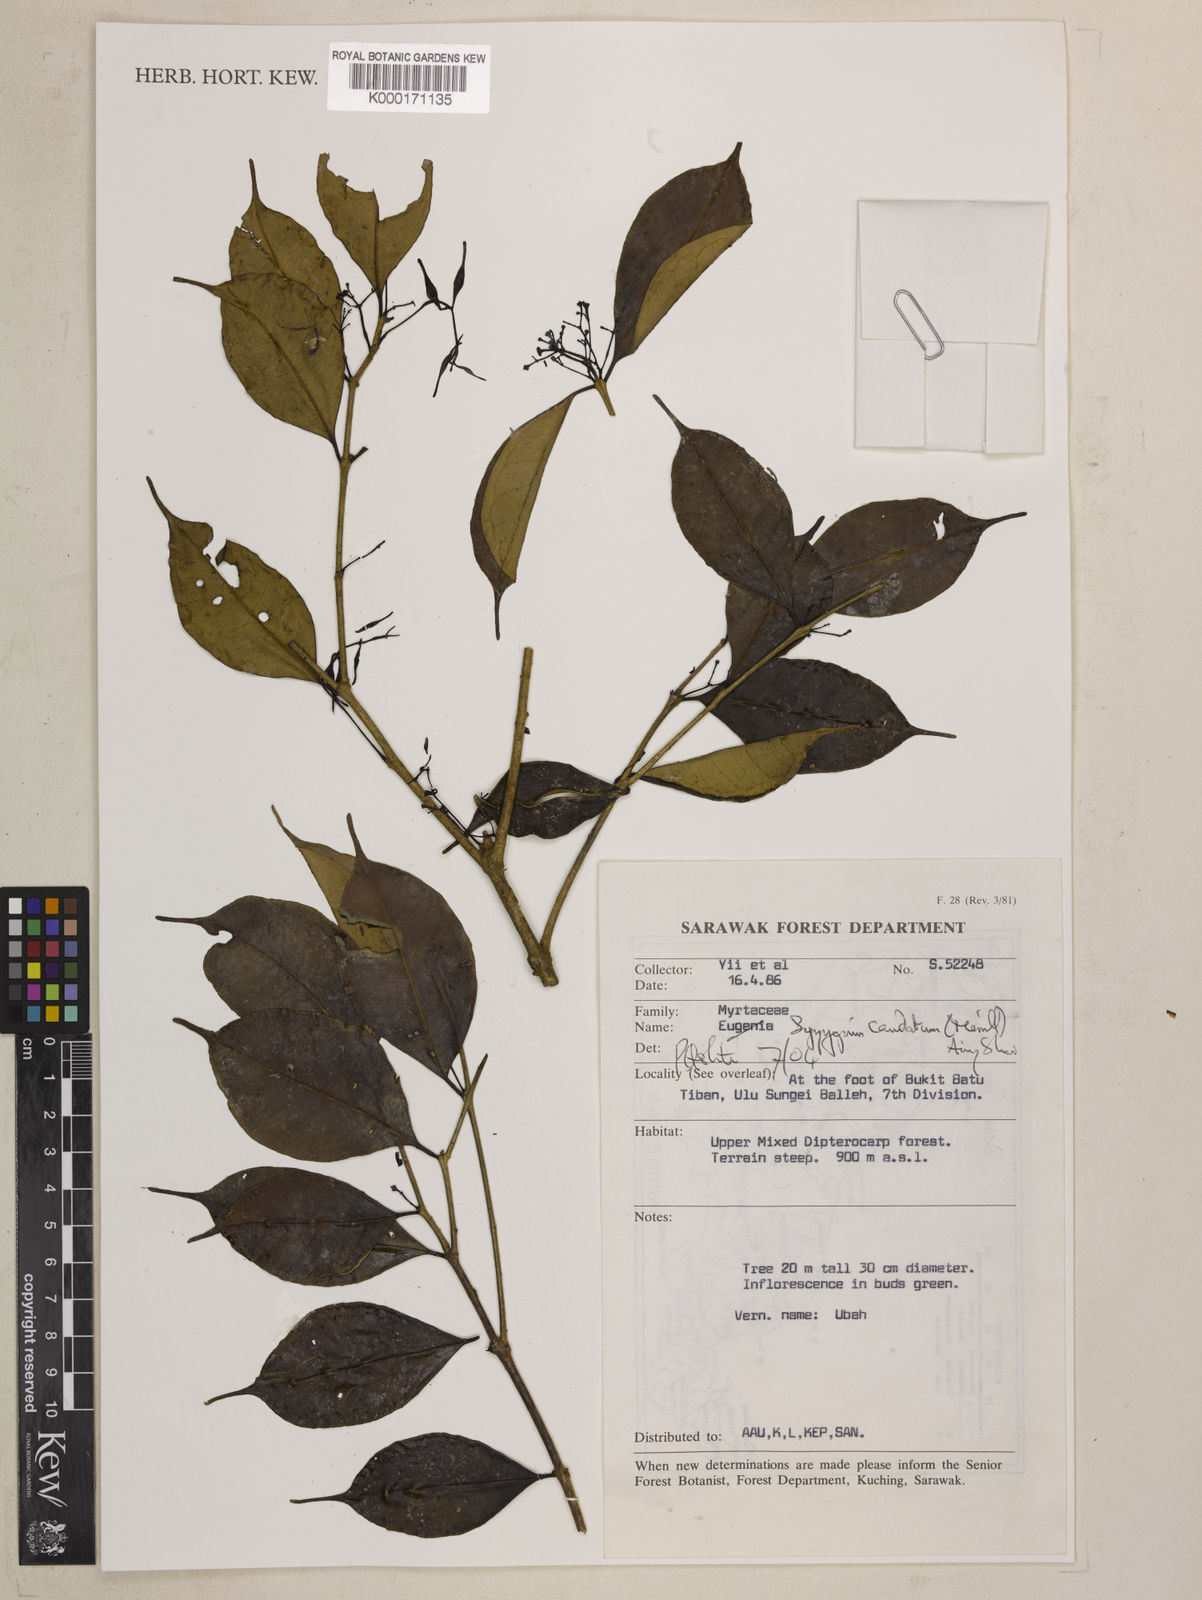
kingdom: Plantae
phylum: Tracheophyta
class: Magnoliopsida
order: Myrtales
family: Myrtaceae
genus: Syzygium
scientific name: Syzygium caudatum
